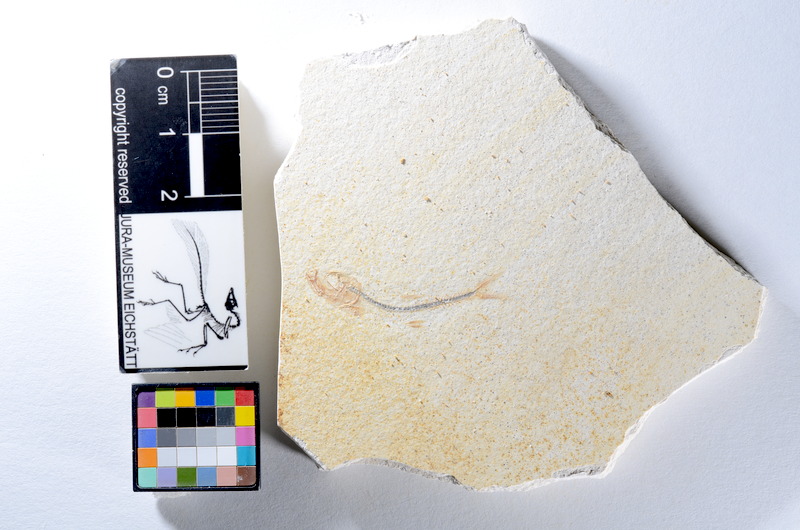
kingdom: Animalia
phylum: Chordata
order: Salmoniformes
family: Orthogonikleithridae
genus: Orthogonikleithrus
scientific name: Orthogonikleithrus hoelli
